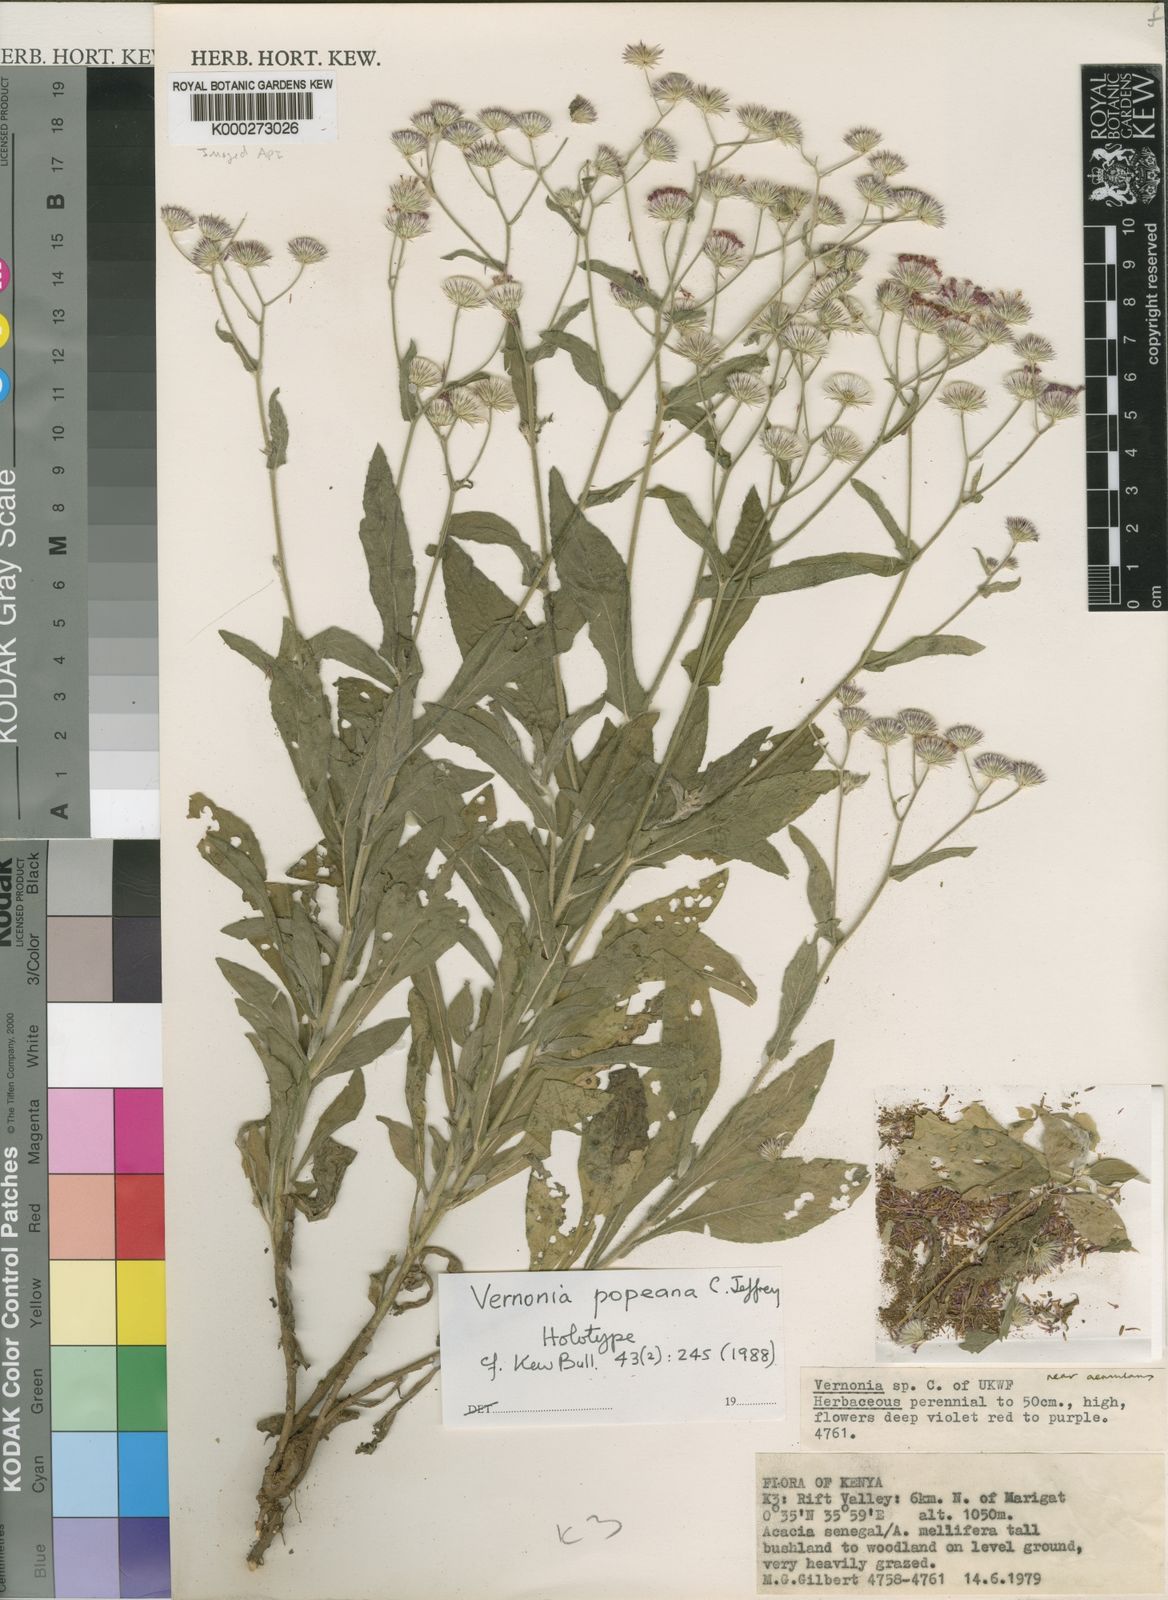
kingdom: Plantae
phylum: Tracheophyta
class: Magnoliopsida
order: Asterales
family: Asteraceae
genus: Vernonia
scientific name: Vernonia popeana
